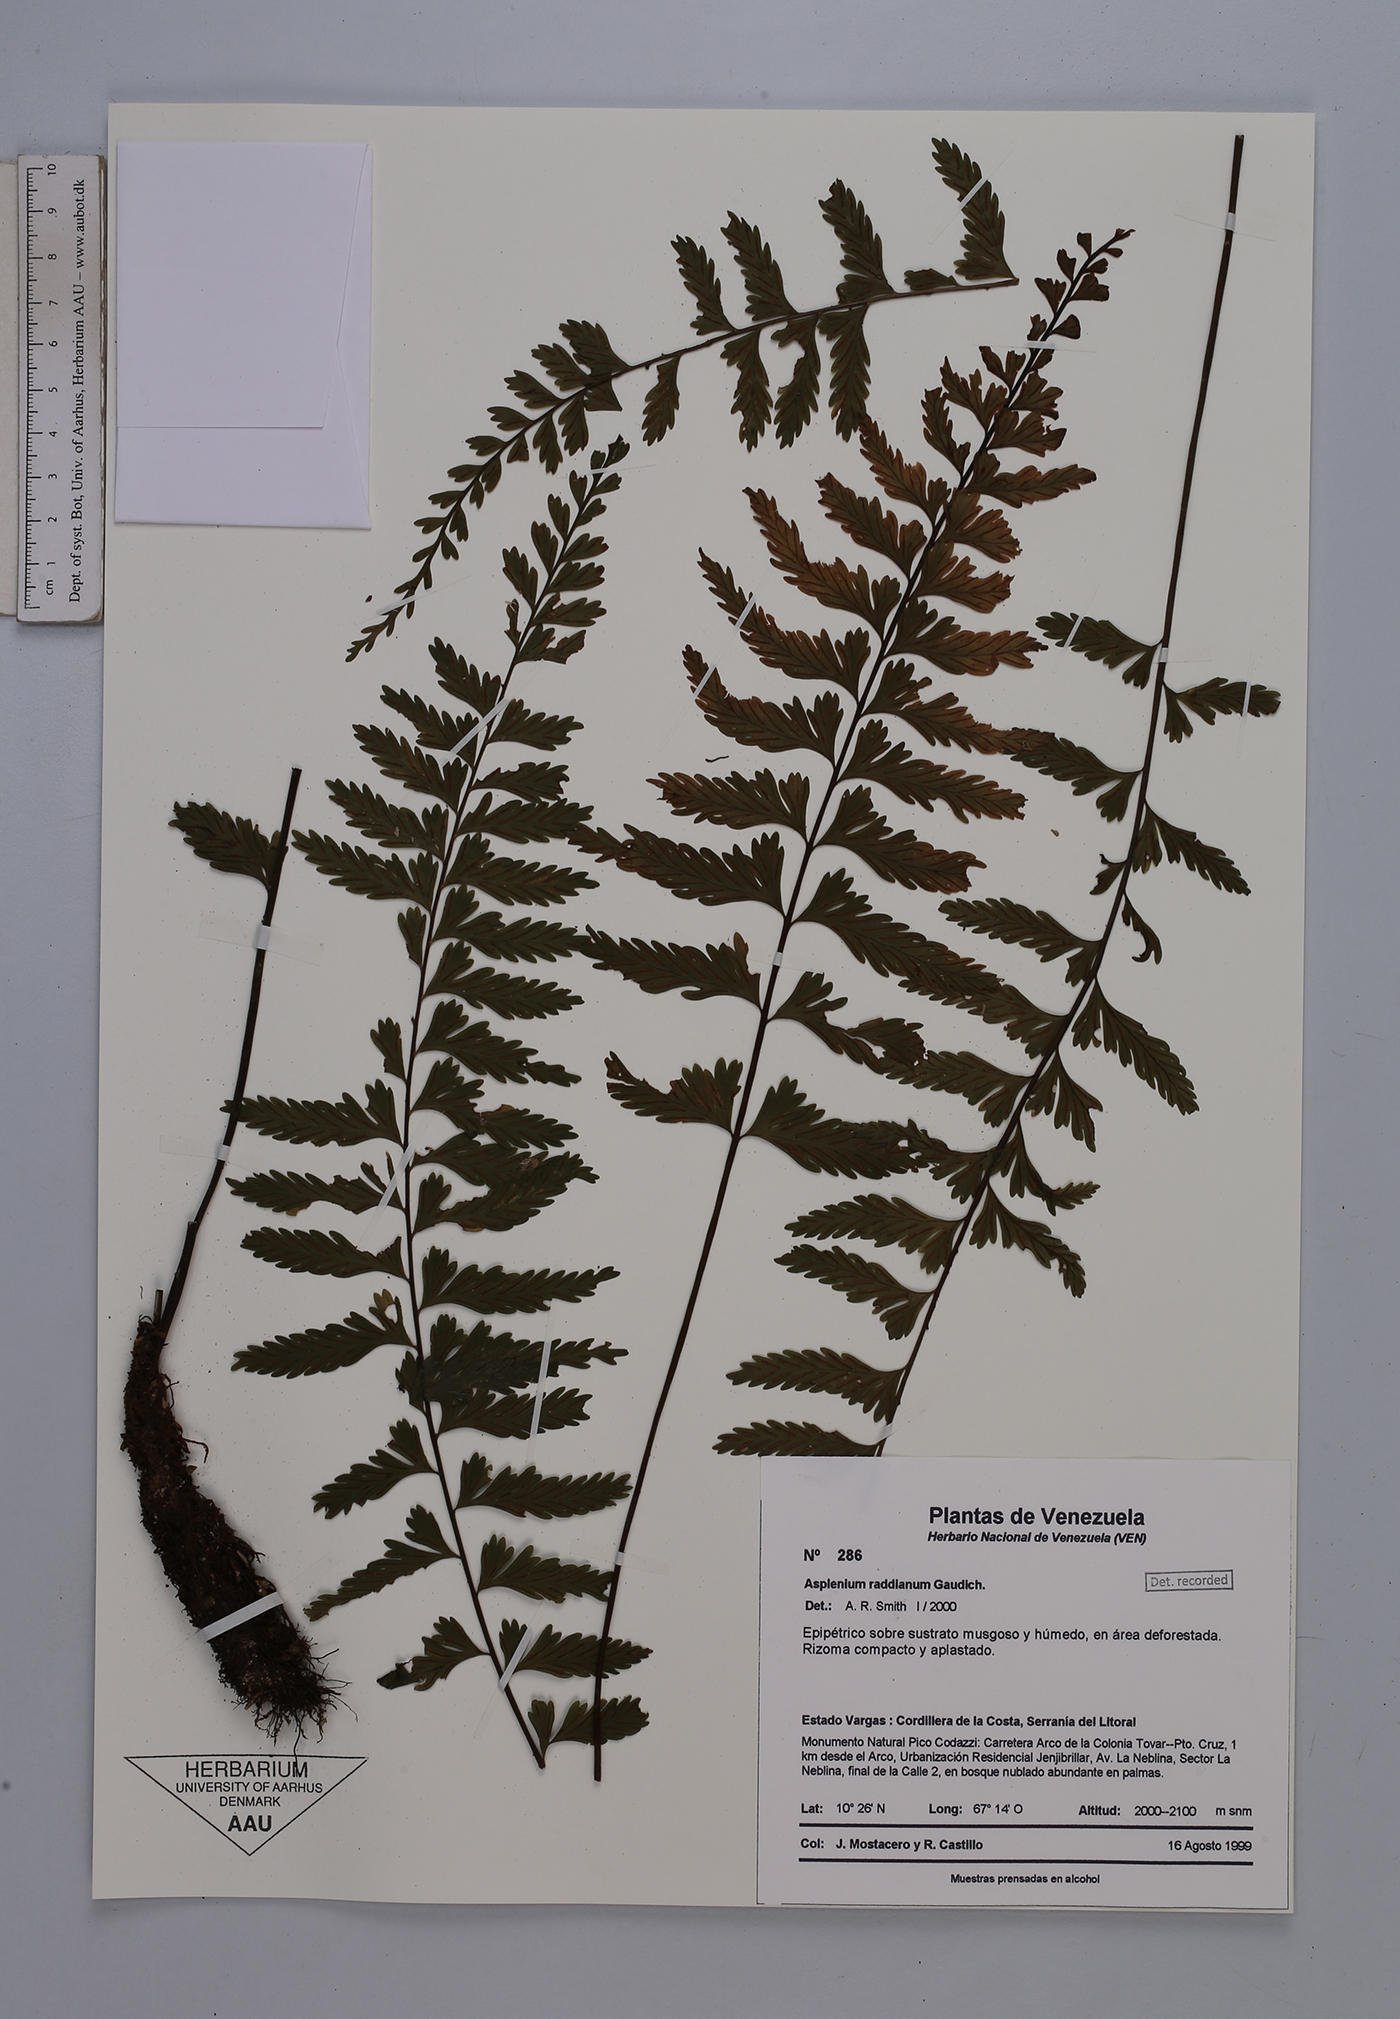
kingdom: Plantae
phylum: Tracheophyta
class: Polypodiopsida
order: Polypodiales
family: Aspleniaceae
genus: Asplenium
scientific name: Asplenium raddianum
